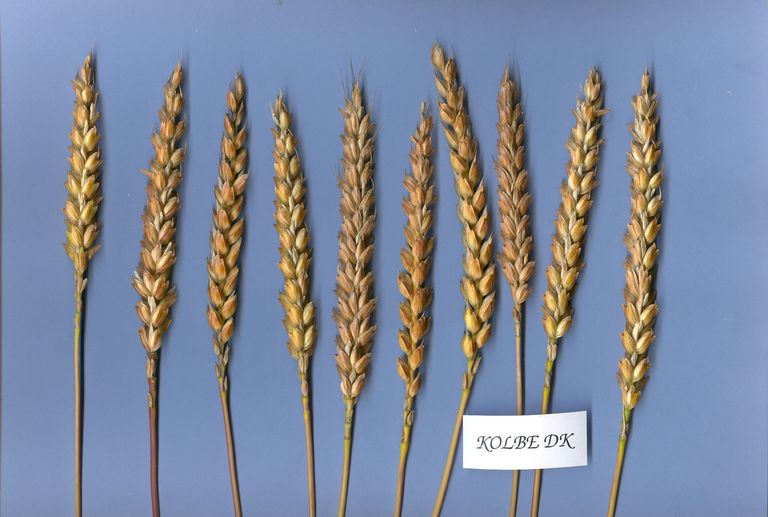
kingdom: Plantae
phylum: Tracheophyta
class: Liliopsida
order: Poales
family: Poaceae
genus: Triticum
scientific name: Triticum aestivum
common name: Common wheat
